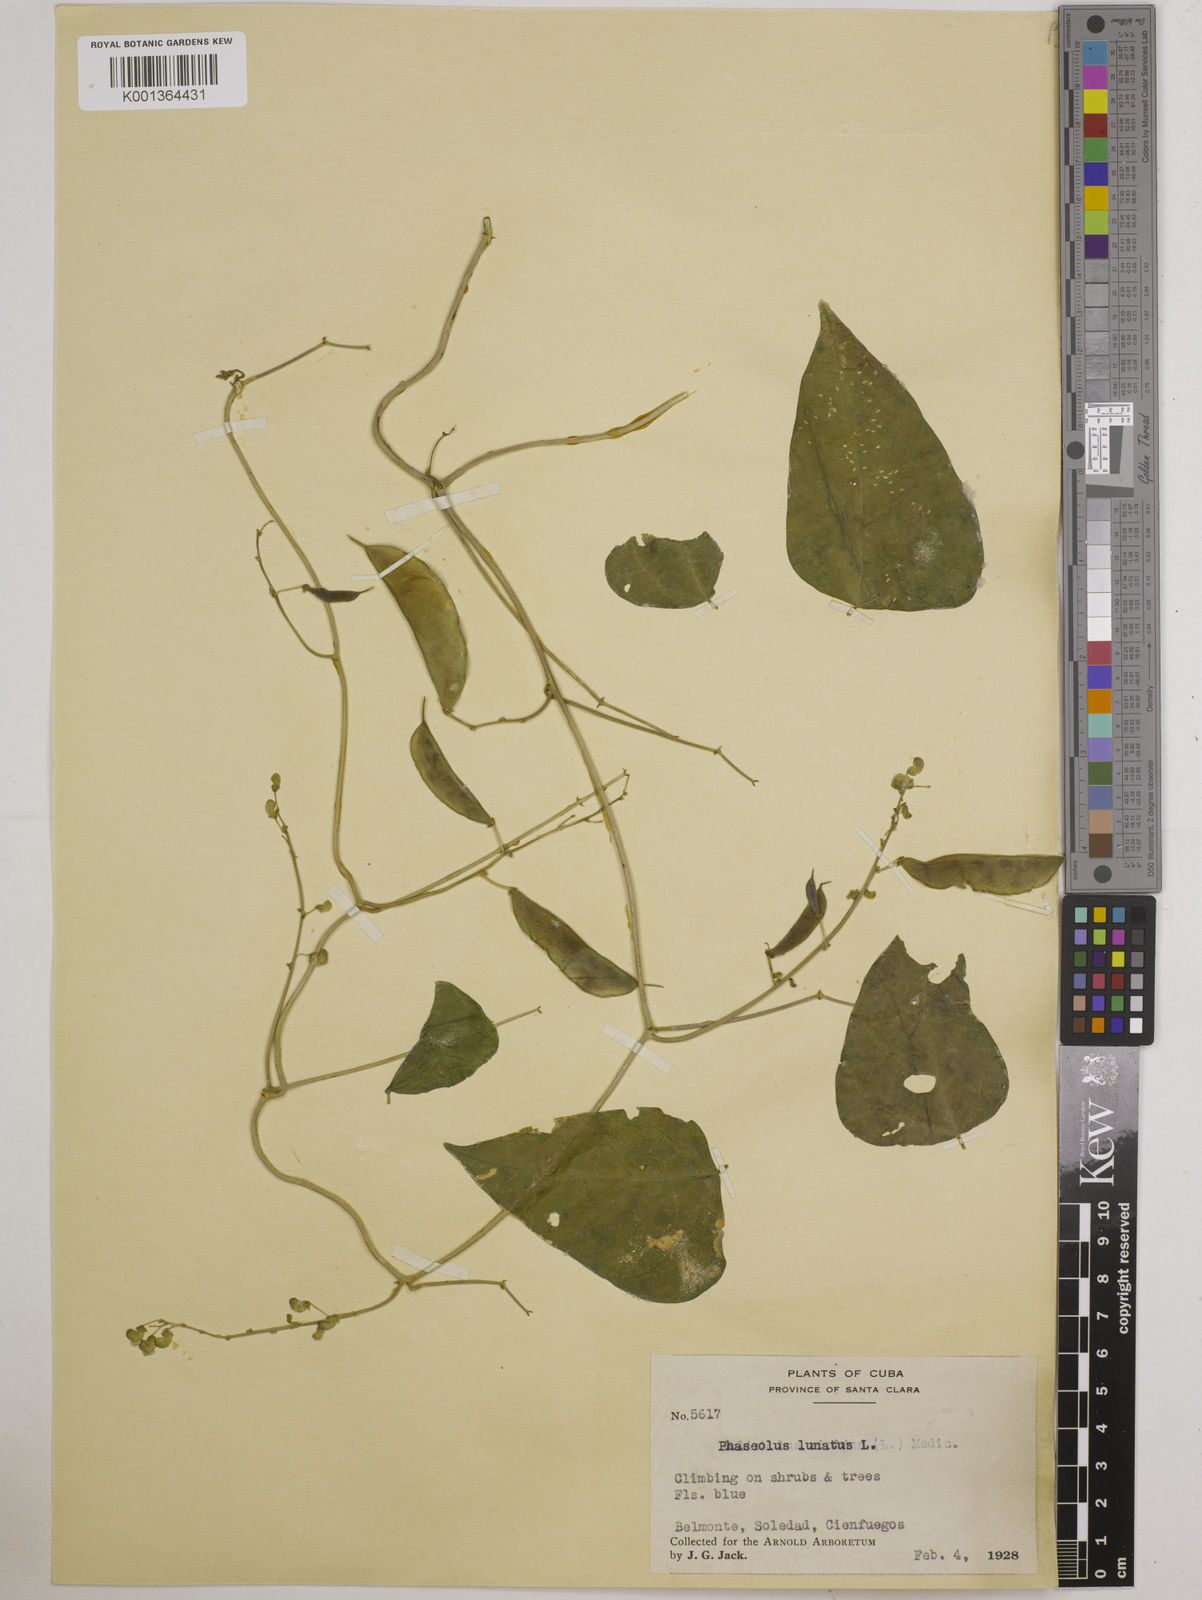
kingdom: Plantae
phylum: Tracheophyta
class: Magnoliopsida
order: Fabales
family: Fabaceae
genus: Phaseolus
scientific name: Phaseolus lunatus
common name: Sieva bean
